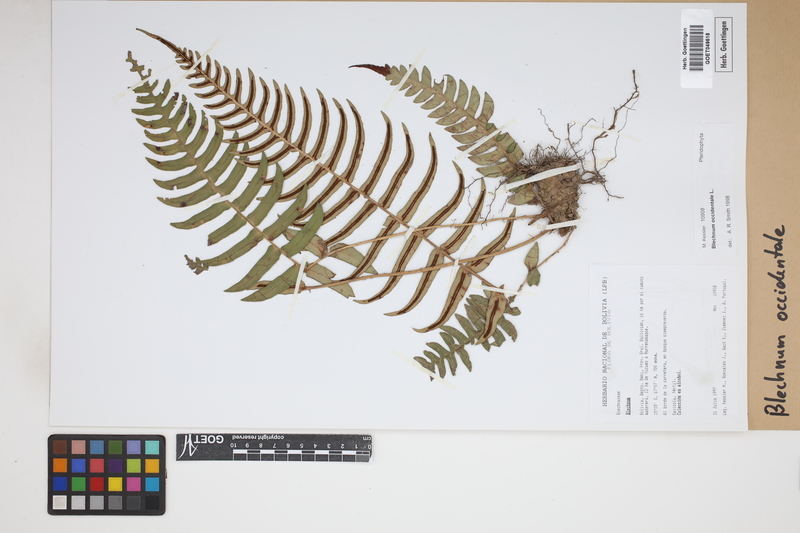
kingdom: Plantae
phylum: Tracheophyta
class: Polypodiopsida
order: Polypodiales
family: Blechnaceae
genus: Blechnum
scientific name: Blechnum occidentale
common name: Hammock fern
